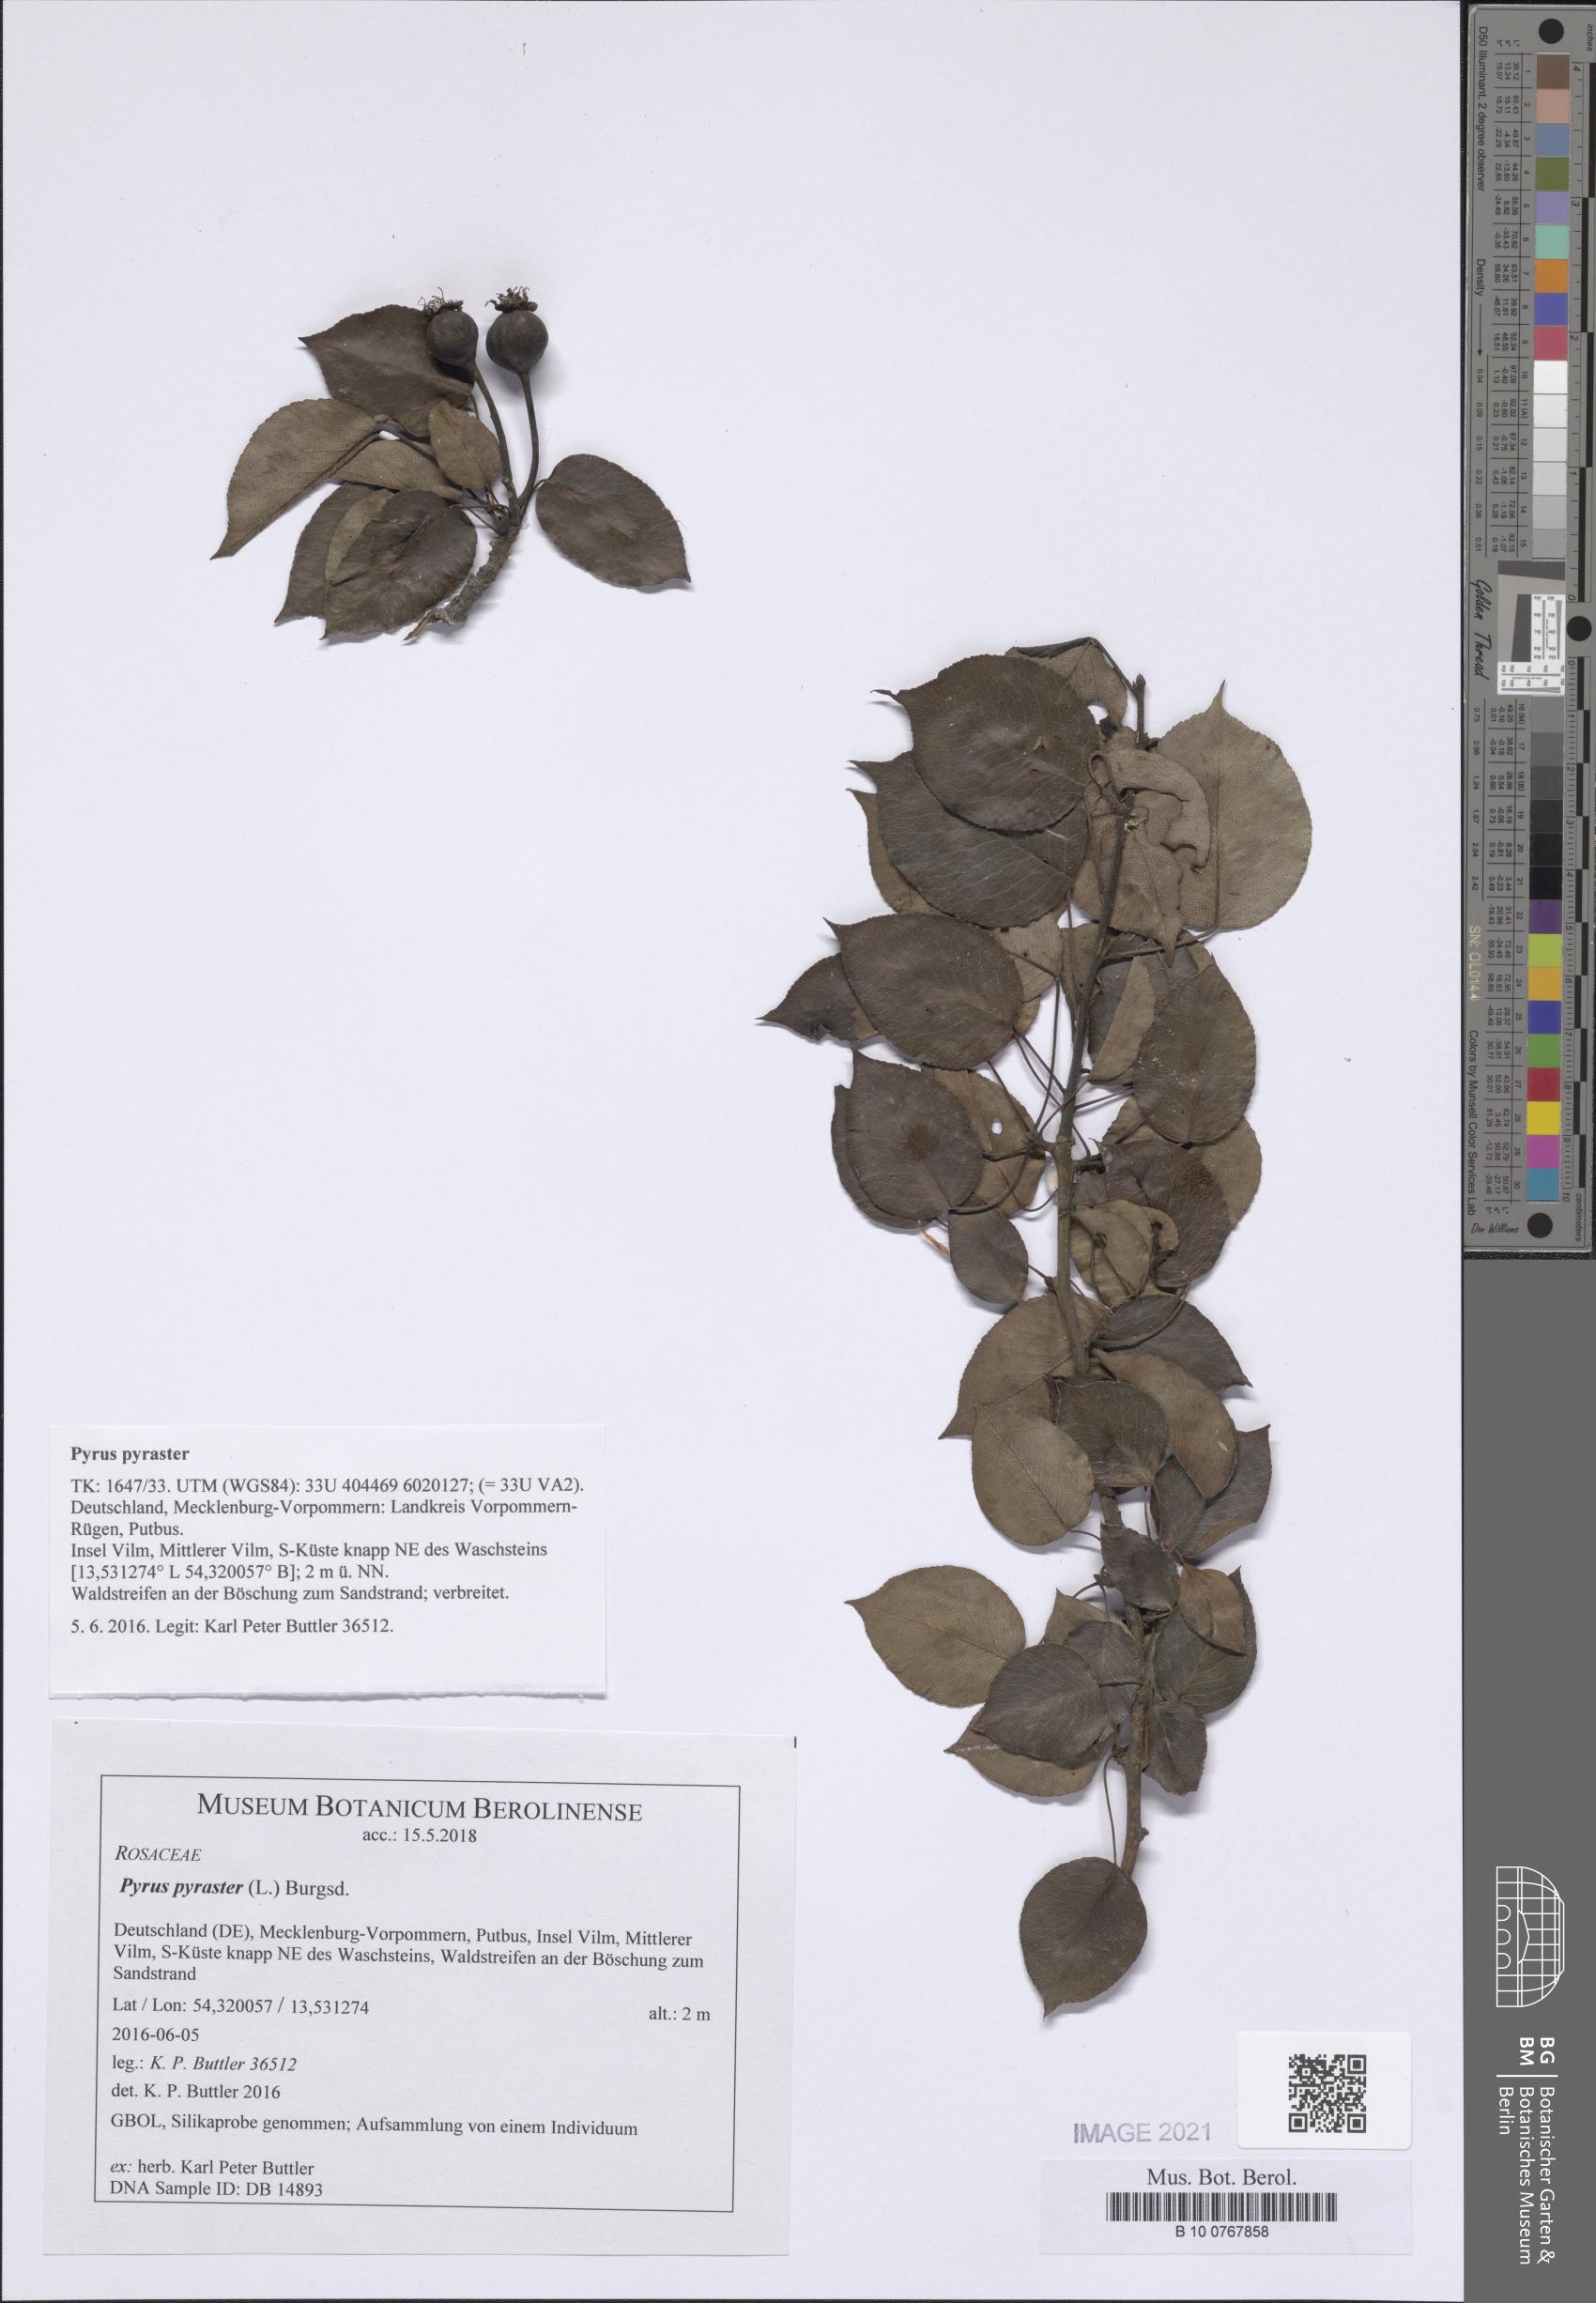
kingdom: Plantae
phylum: Tracheophyta
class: Magnoliopsida
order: Rosales
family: Rosaceae
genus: Pyrus
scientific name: Pyrus pyraster
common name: Wild pear
